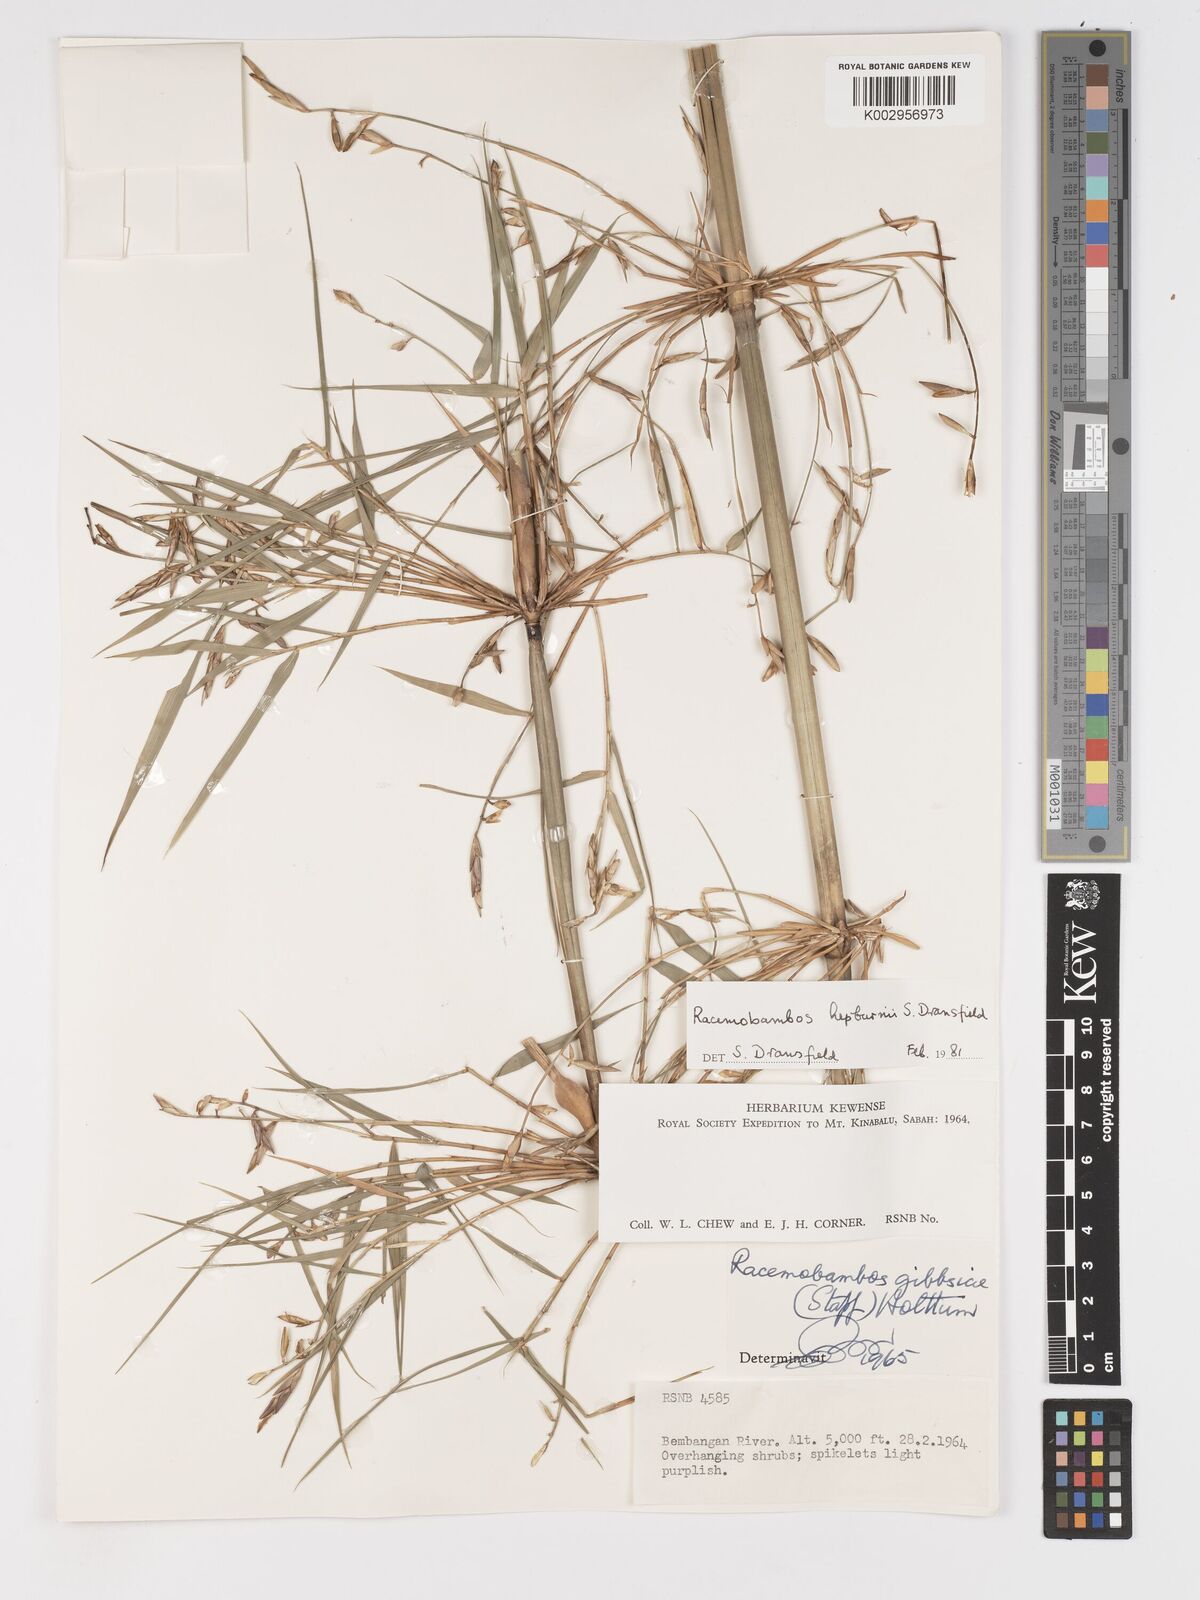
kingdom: Plantae
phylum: Tracheophyta
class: Liliopsida
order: Poales
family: Poaceae
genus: Racemobambos
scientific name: Racemobambos hepburnii
